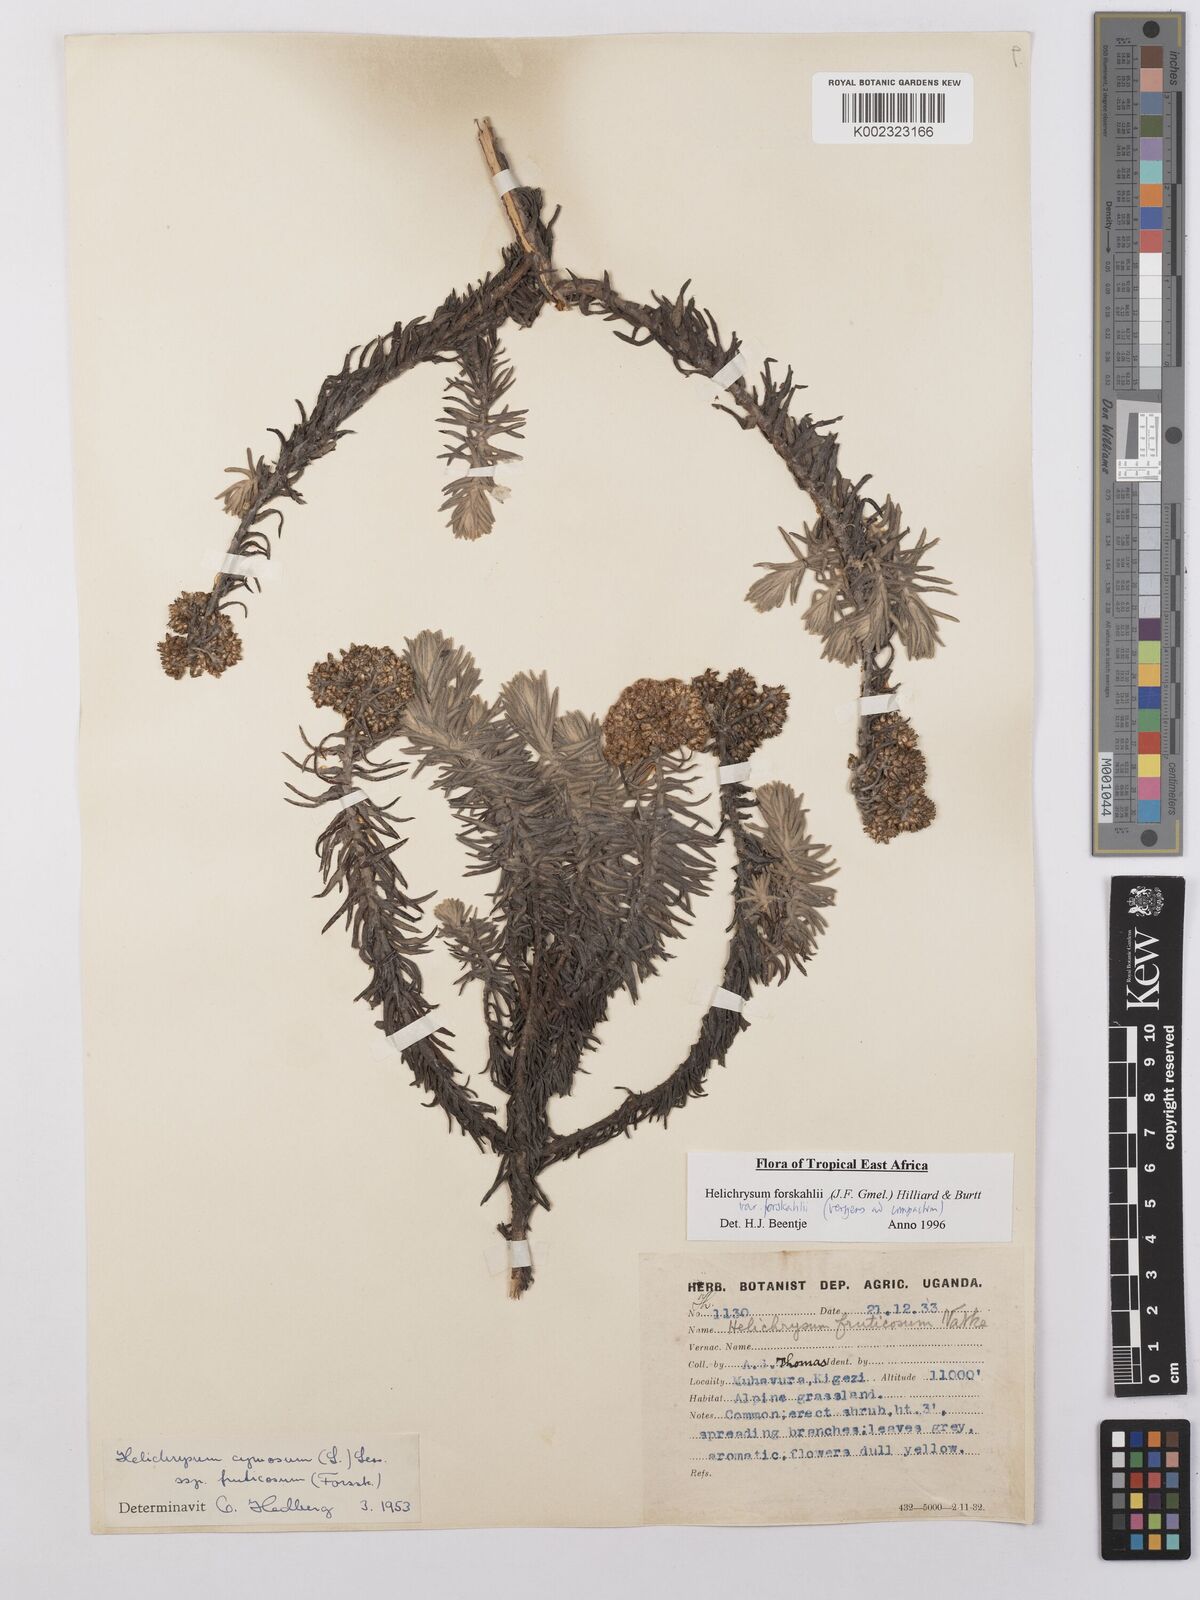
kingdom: Plantae
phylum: Tracheophyta
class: Magnoliopsida
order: Asterales
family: Asteraceae
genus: Helichrysum
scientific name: Helichrysum forskahlii
